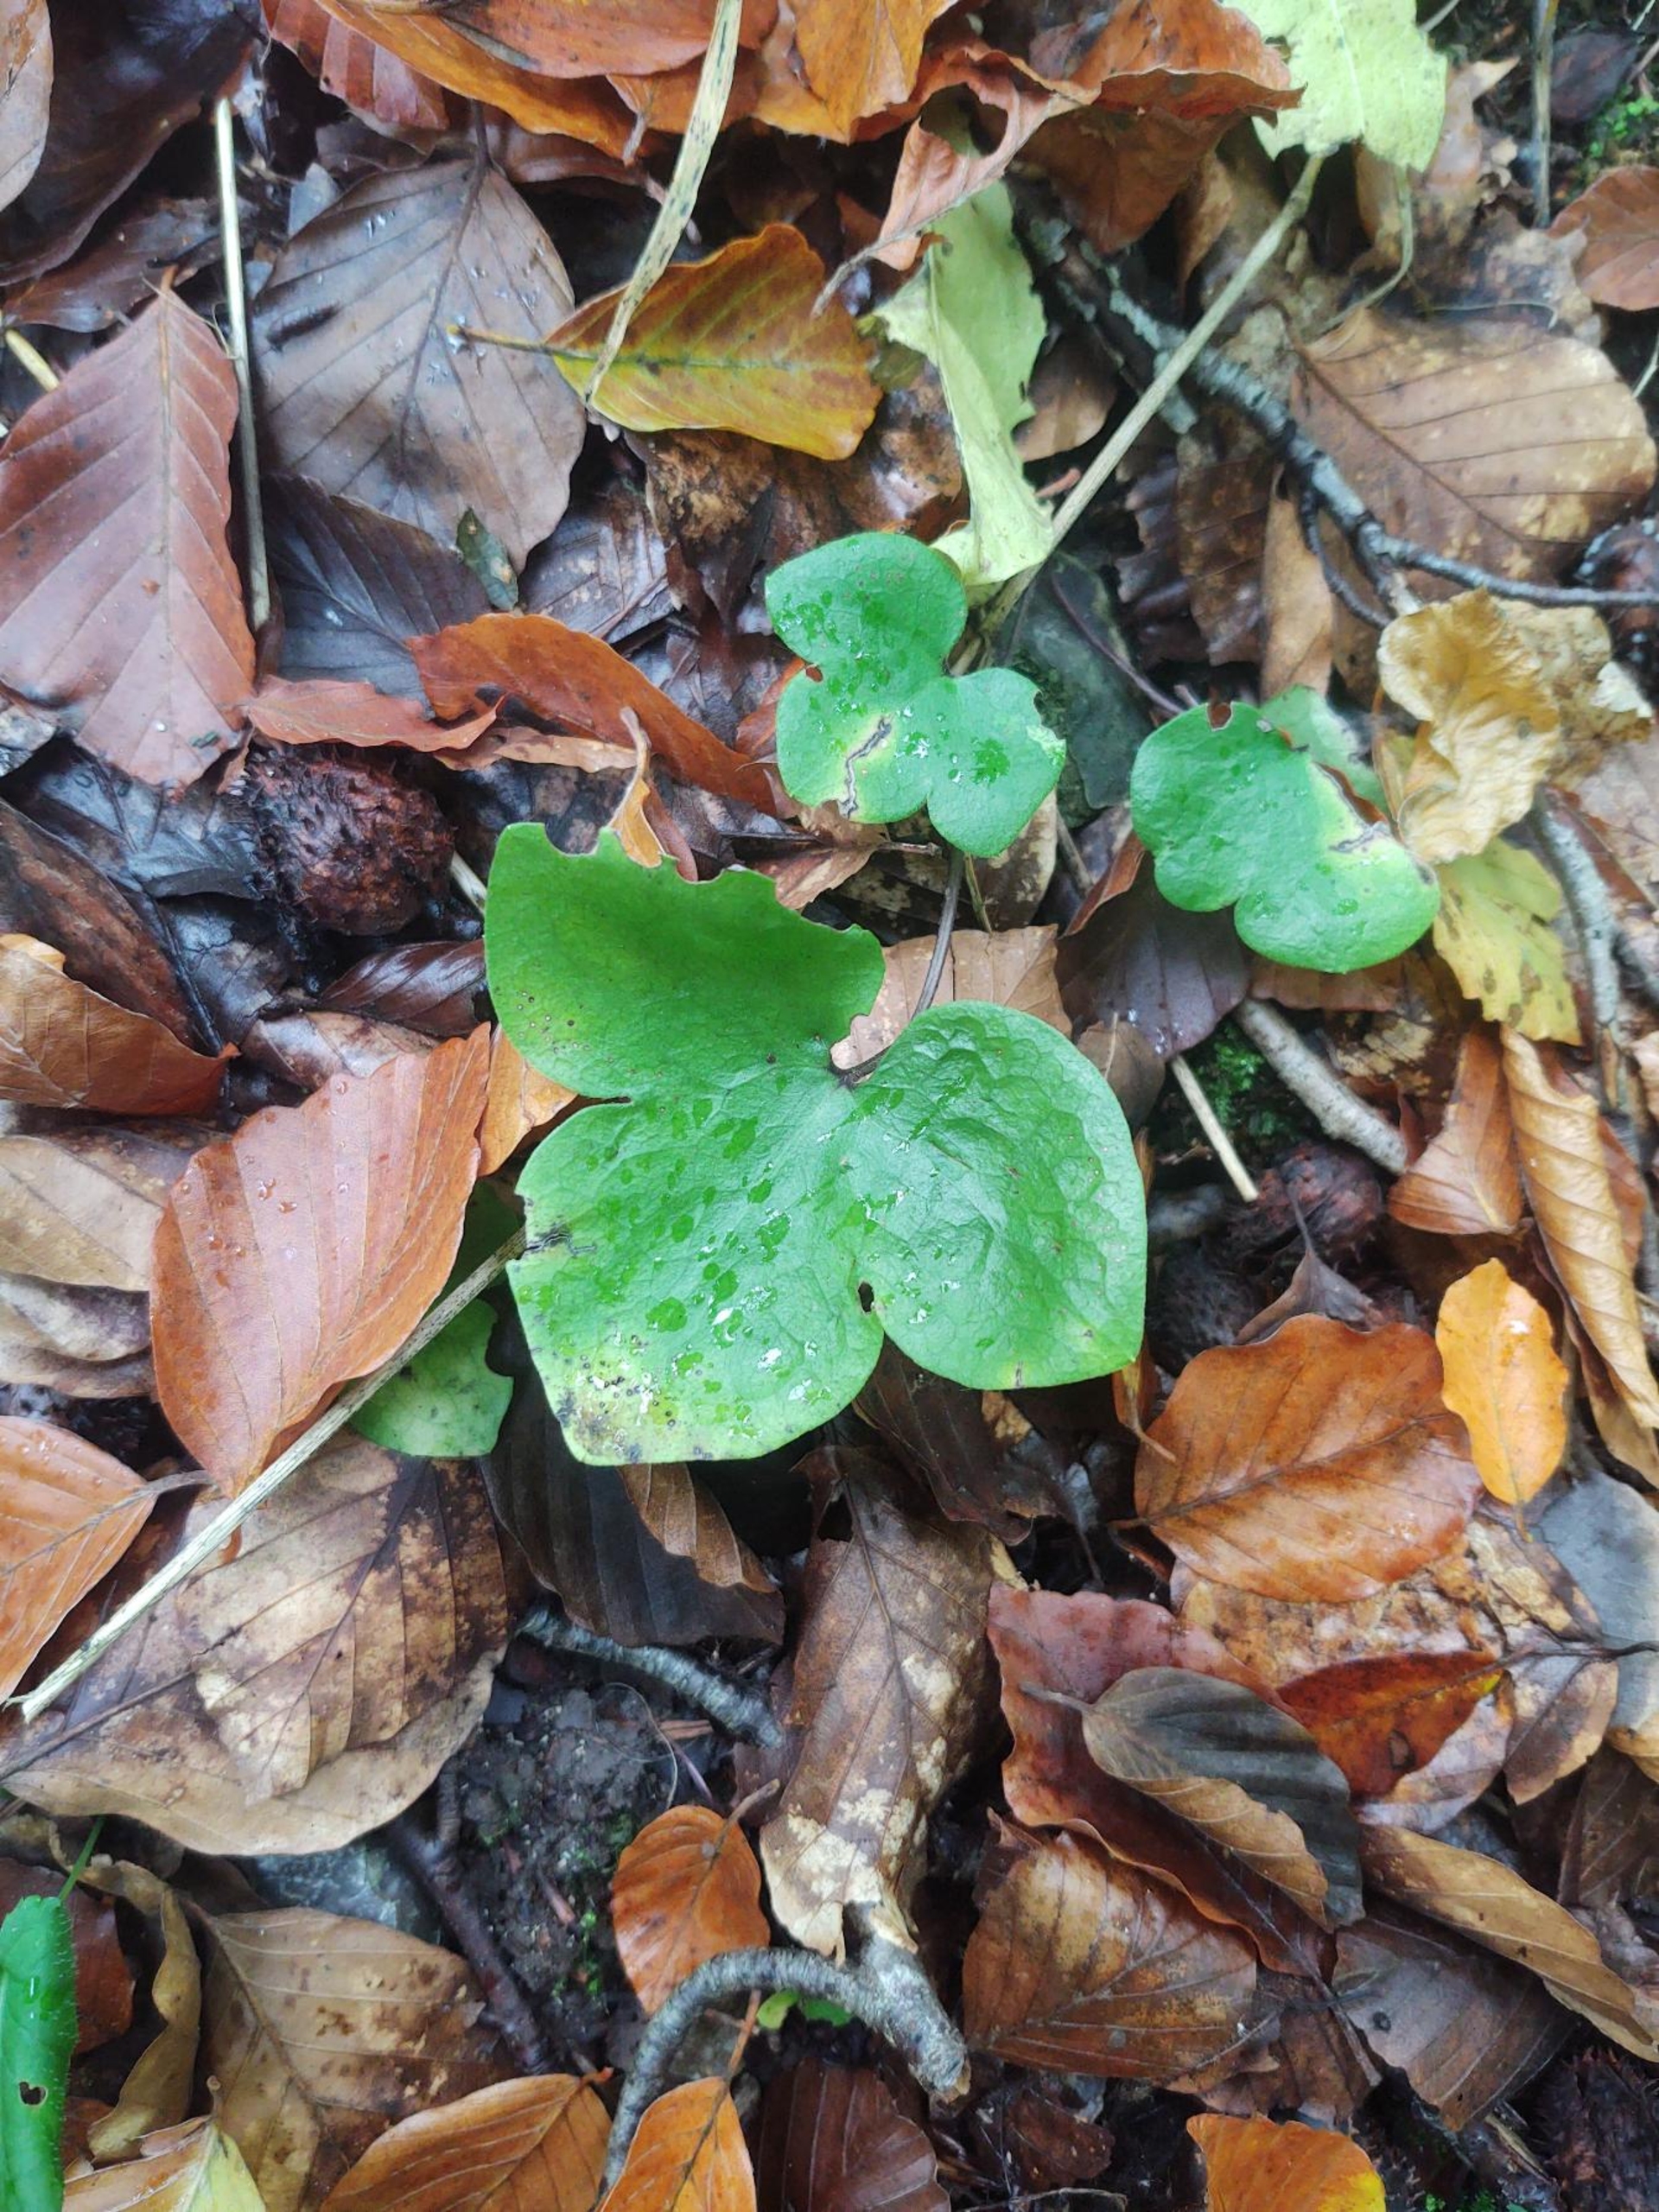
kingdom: Plantae
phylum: Tracheophyta
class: Magnoliopsida
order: Ranunculales
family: Ranunculaceae
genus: Hepatica
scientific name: Hepatica nobilis
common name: Blå anemone
